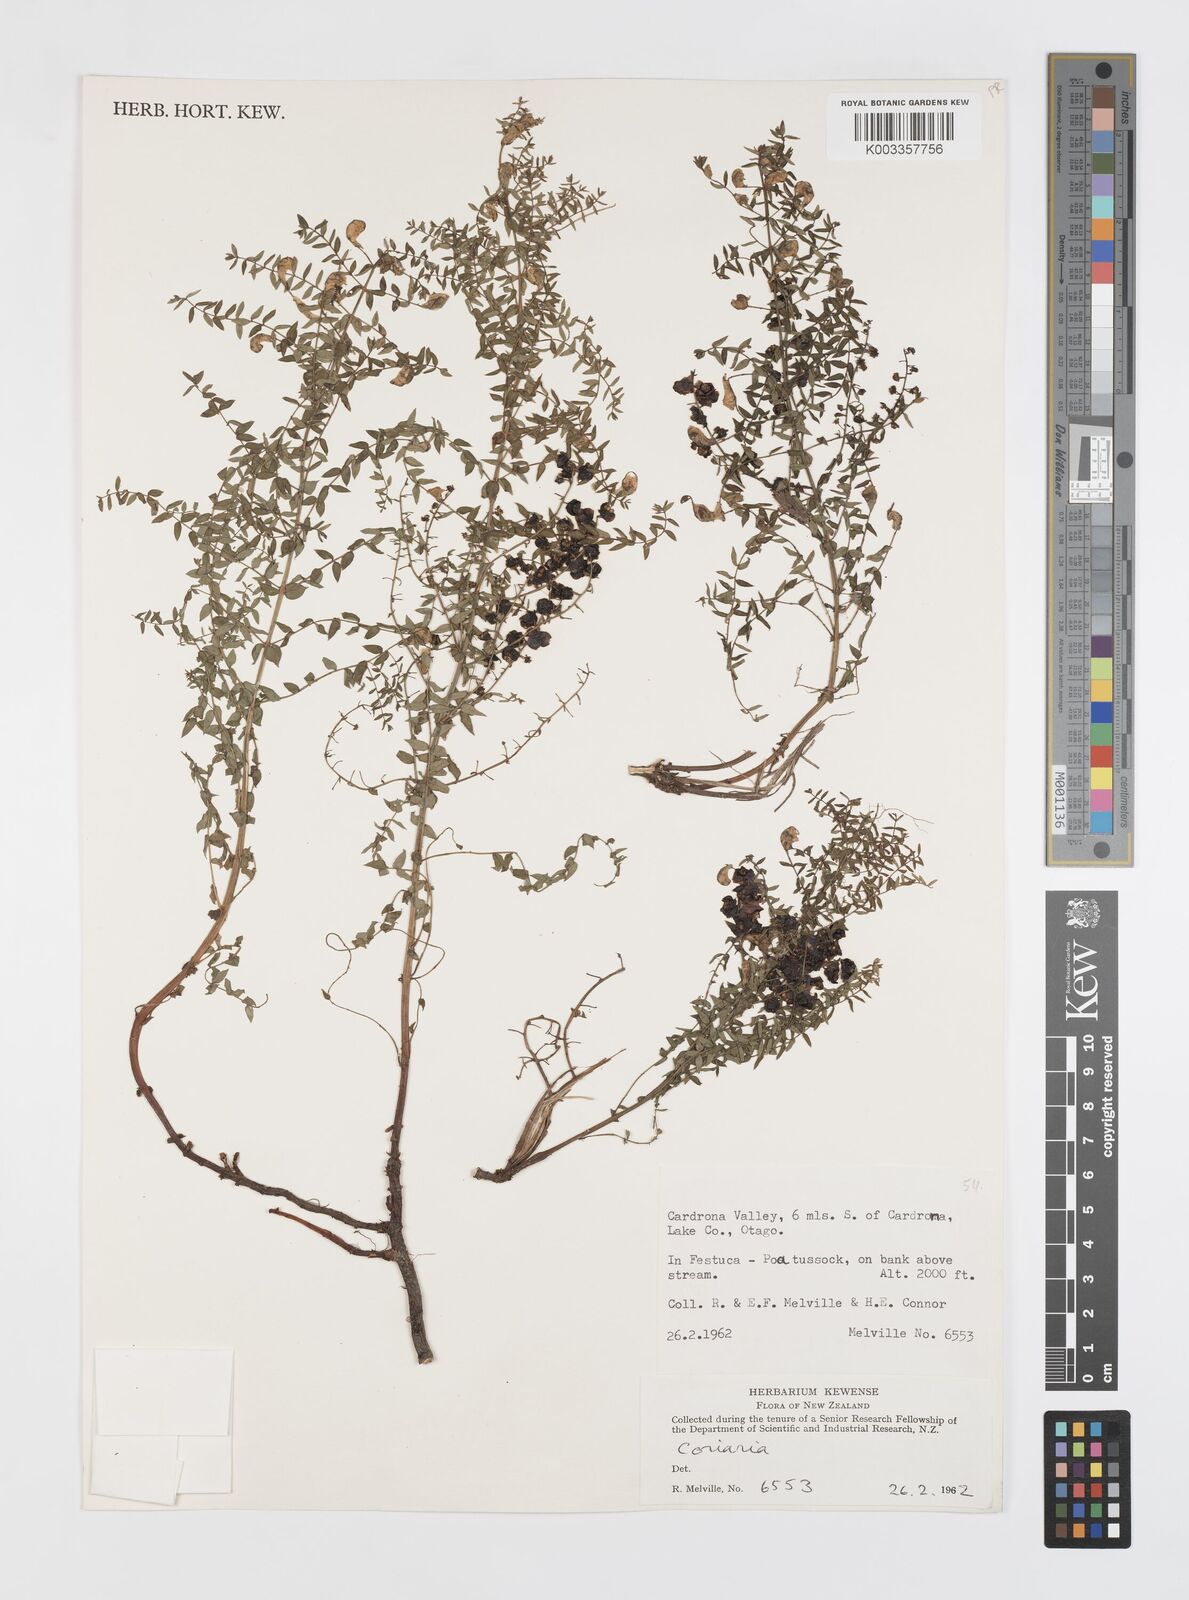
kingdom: Plantae
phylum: Tracheophyta
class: Magnoliopsida
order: Cucurbitales
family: Coriariaceae
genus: Coriaria
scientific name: Coriaria
